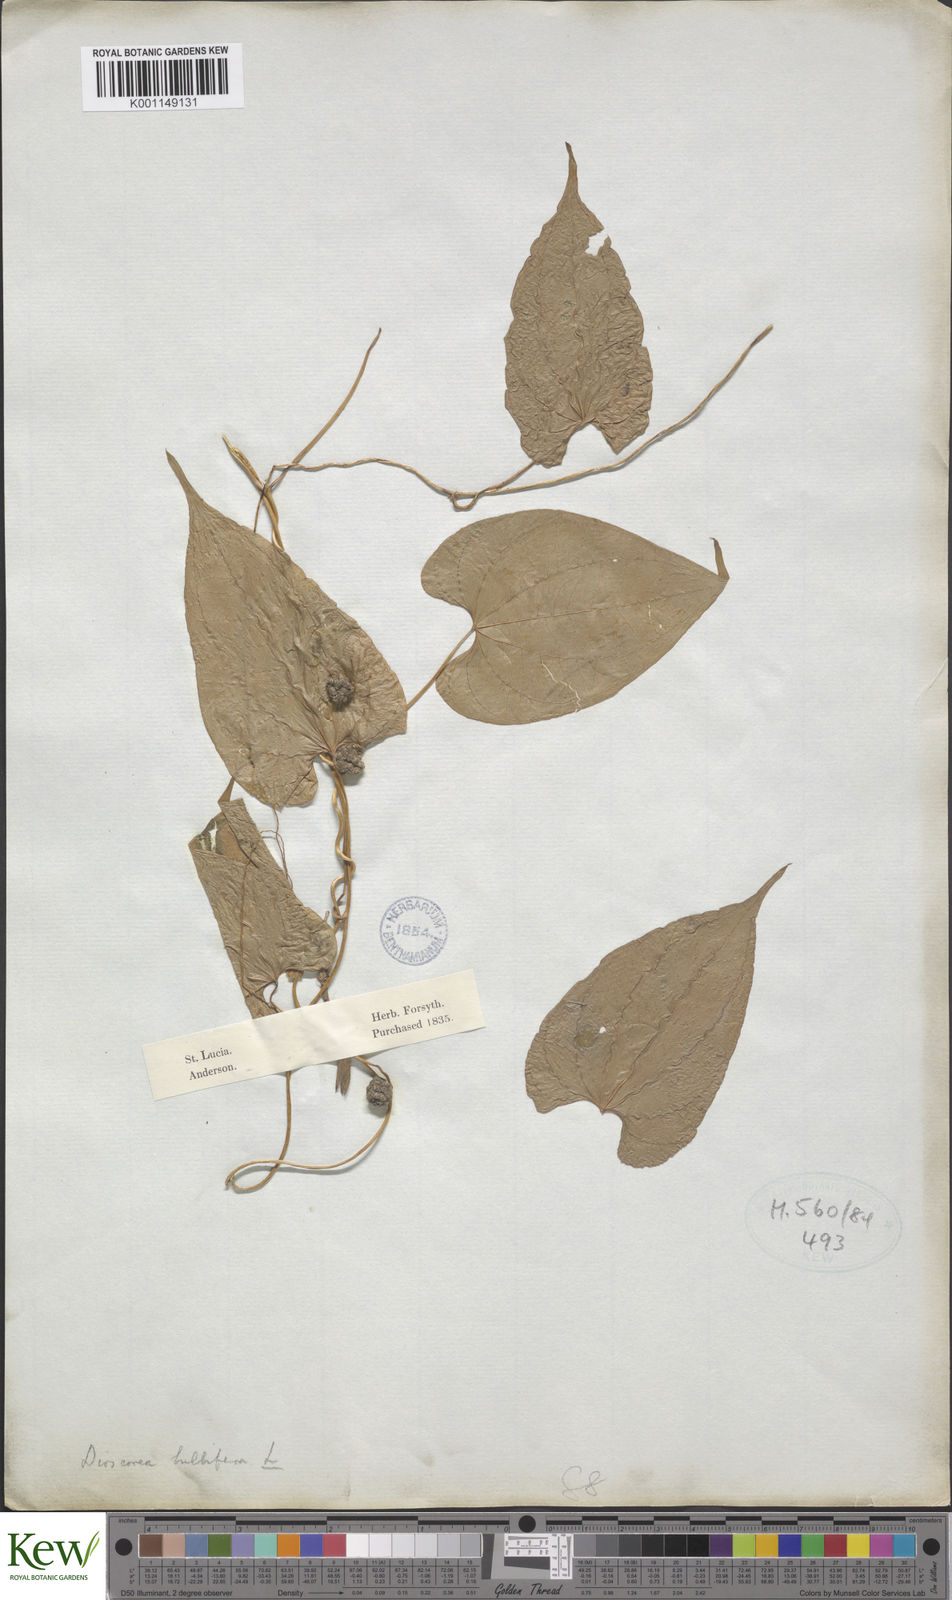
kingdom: Plantae
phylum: Tracheophyta
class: Liliopsida
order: Dioscoreales
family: Dioscoreaceae
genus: Dioscorea
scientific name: Dioscorea bulbifera
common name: Air yam
